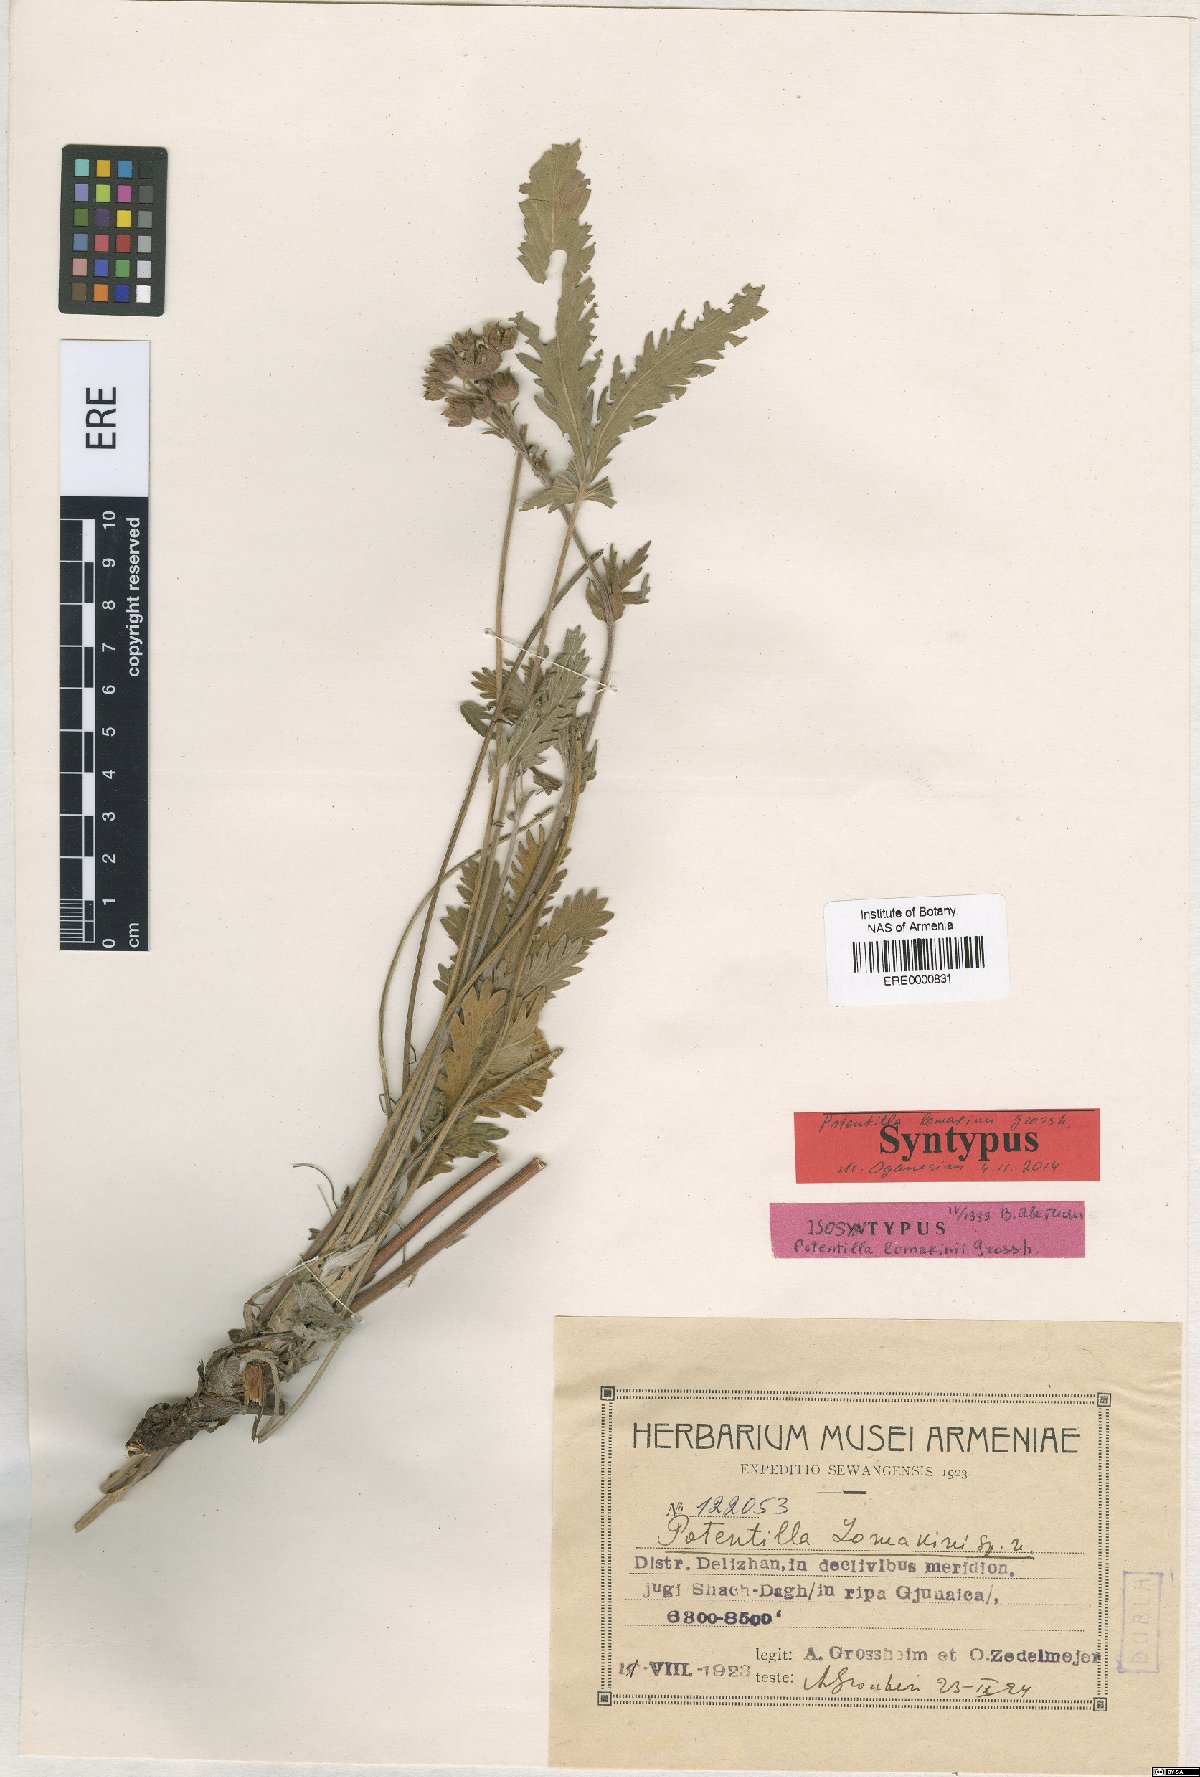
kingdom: Plantae
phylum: Tracheophyta
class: Magnoliopsida
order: Rosales
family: Rosaceae
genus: Potentilla
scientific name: Potentilla lomakinii
